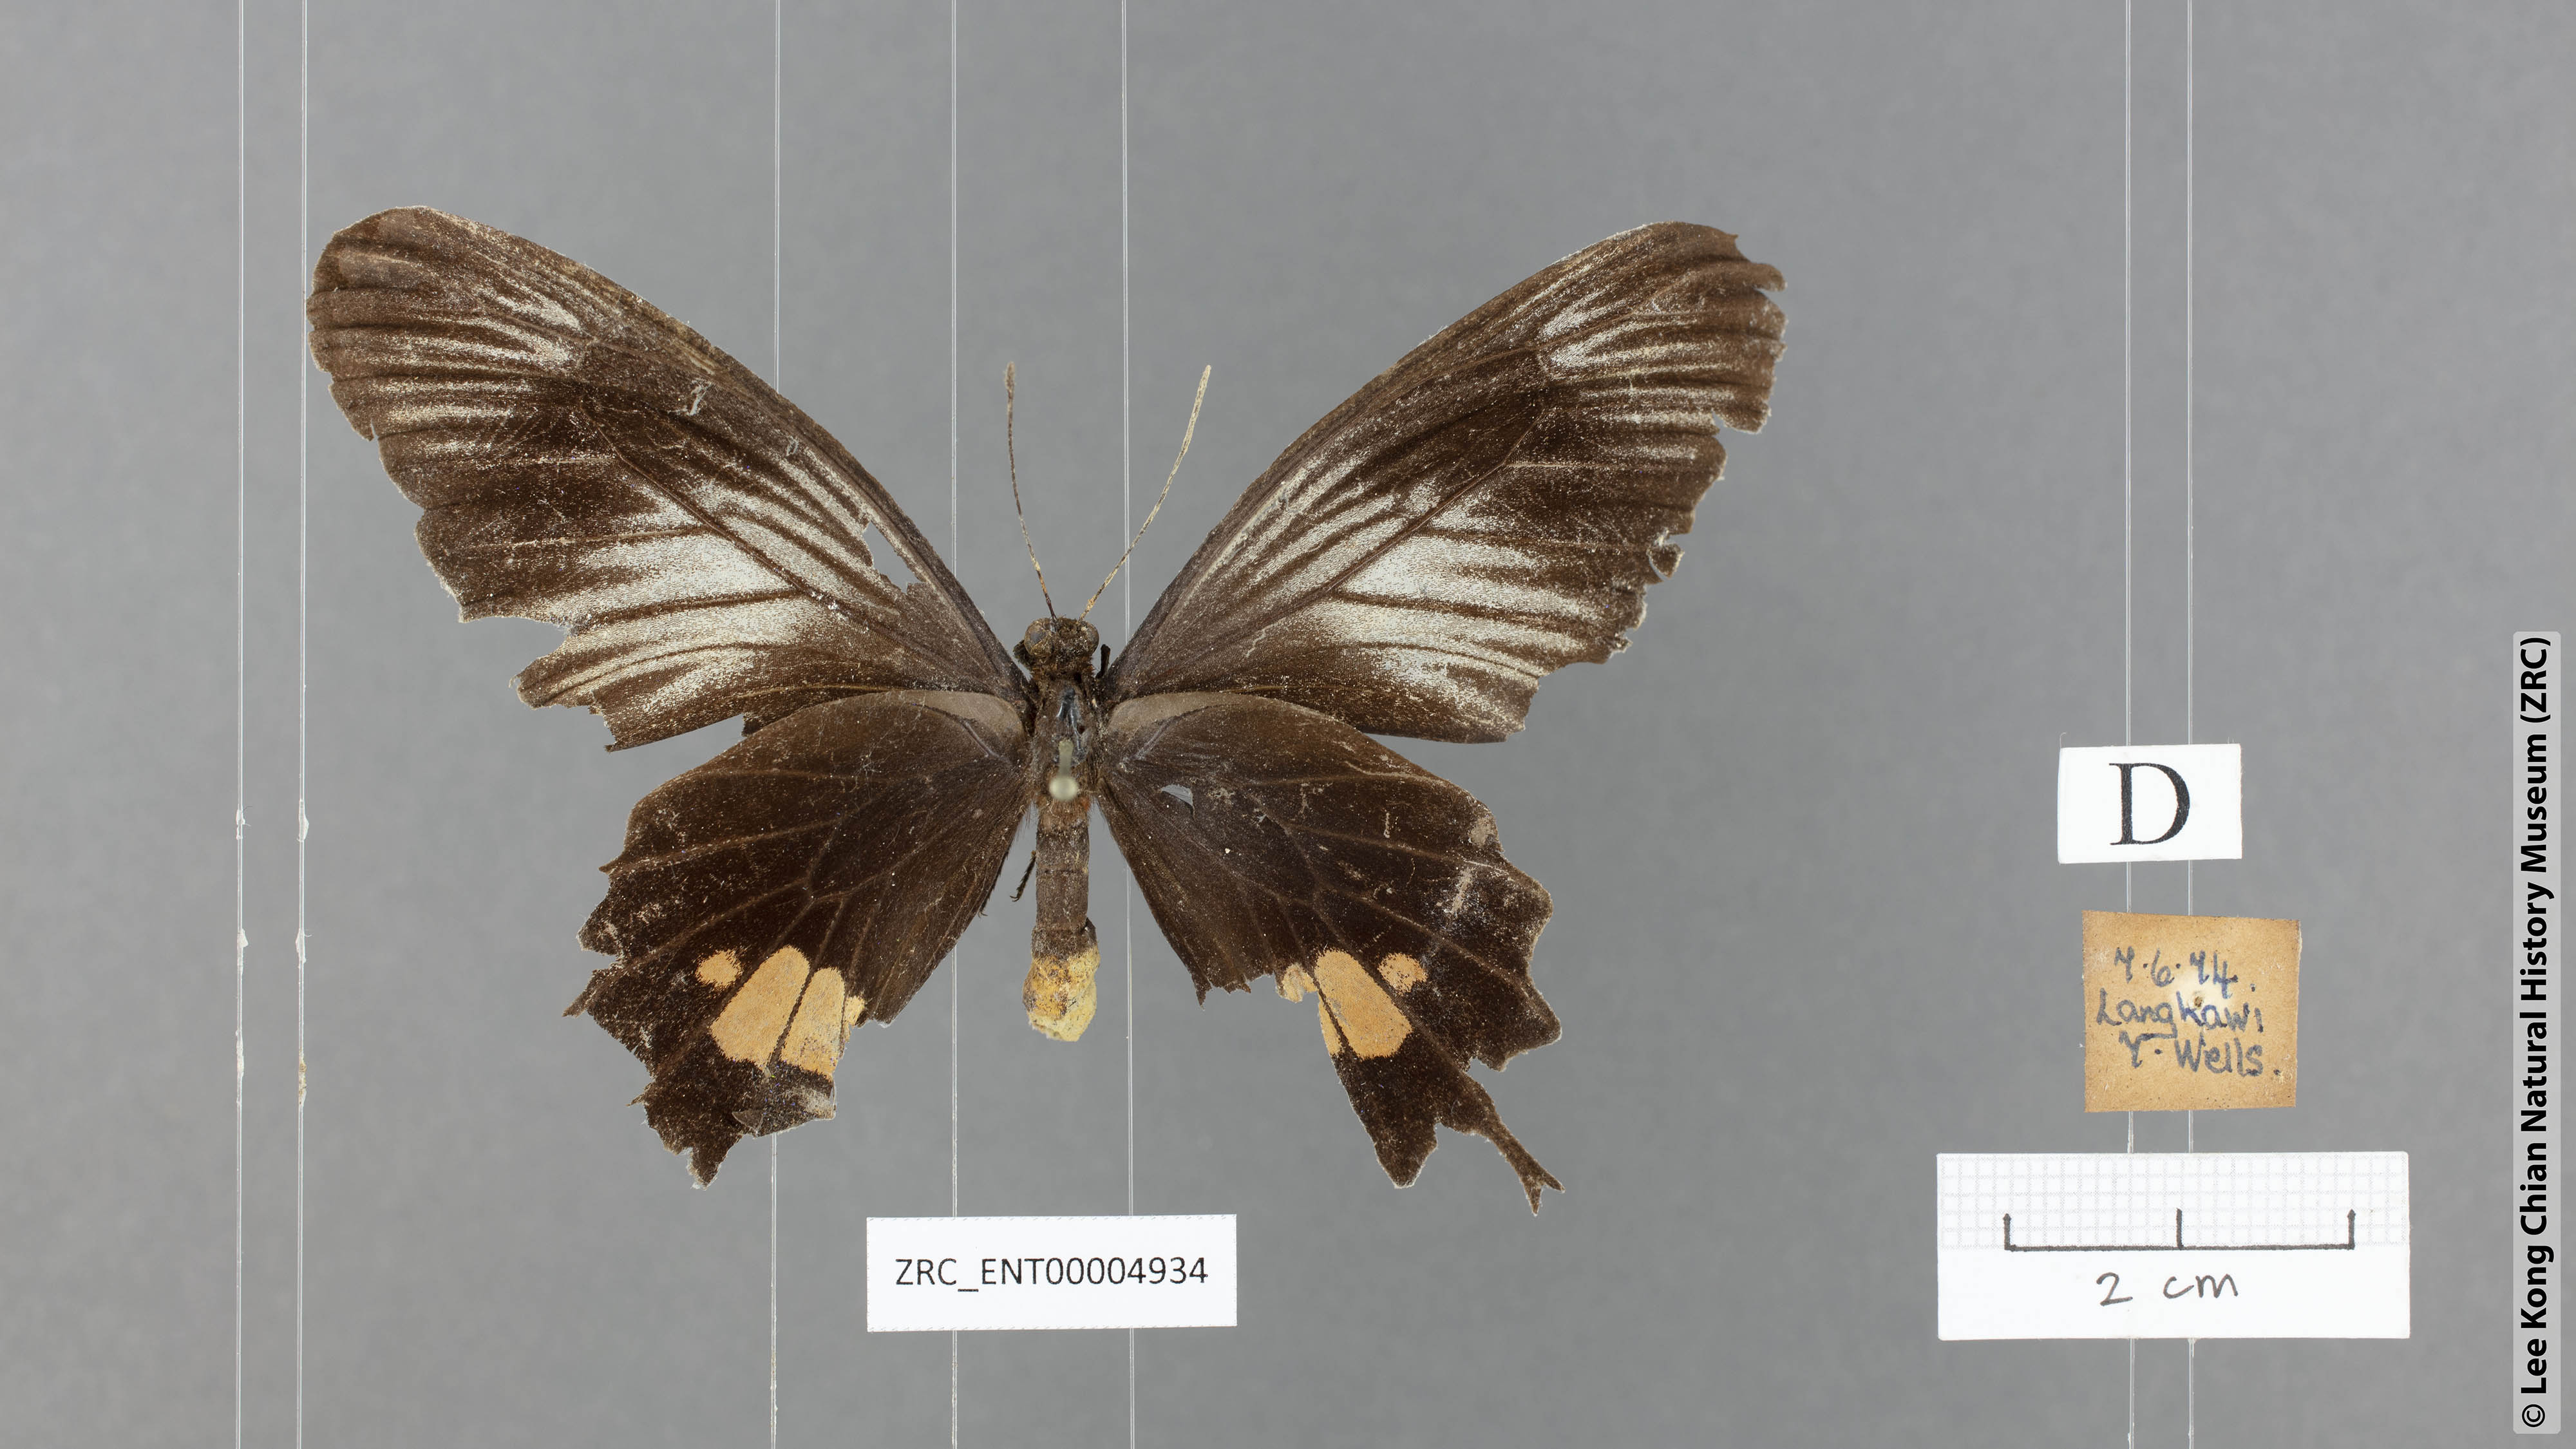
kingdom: Animalia
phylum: Arthropoda
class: Insecta
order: Lepidoptera
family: Papilionidae
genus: Losaria
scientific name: Losaria neptunus
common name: Yellow-bodied clubtail
